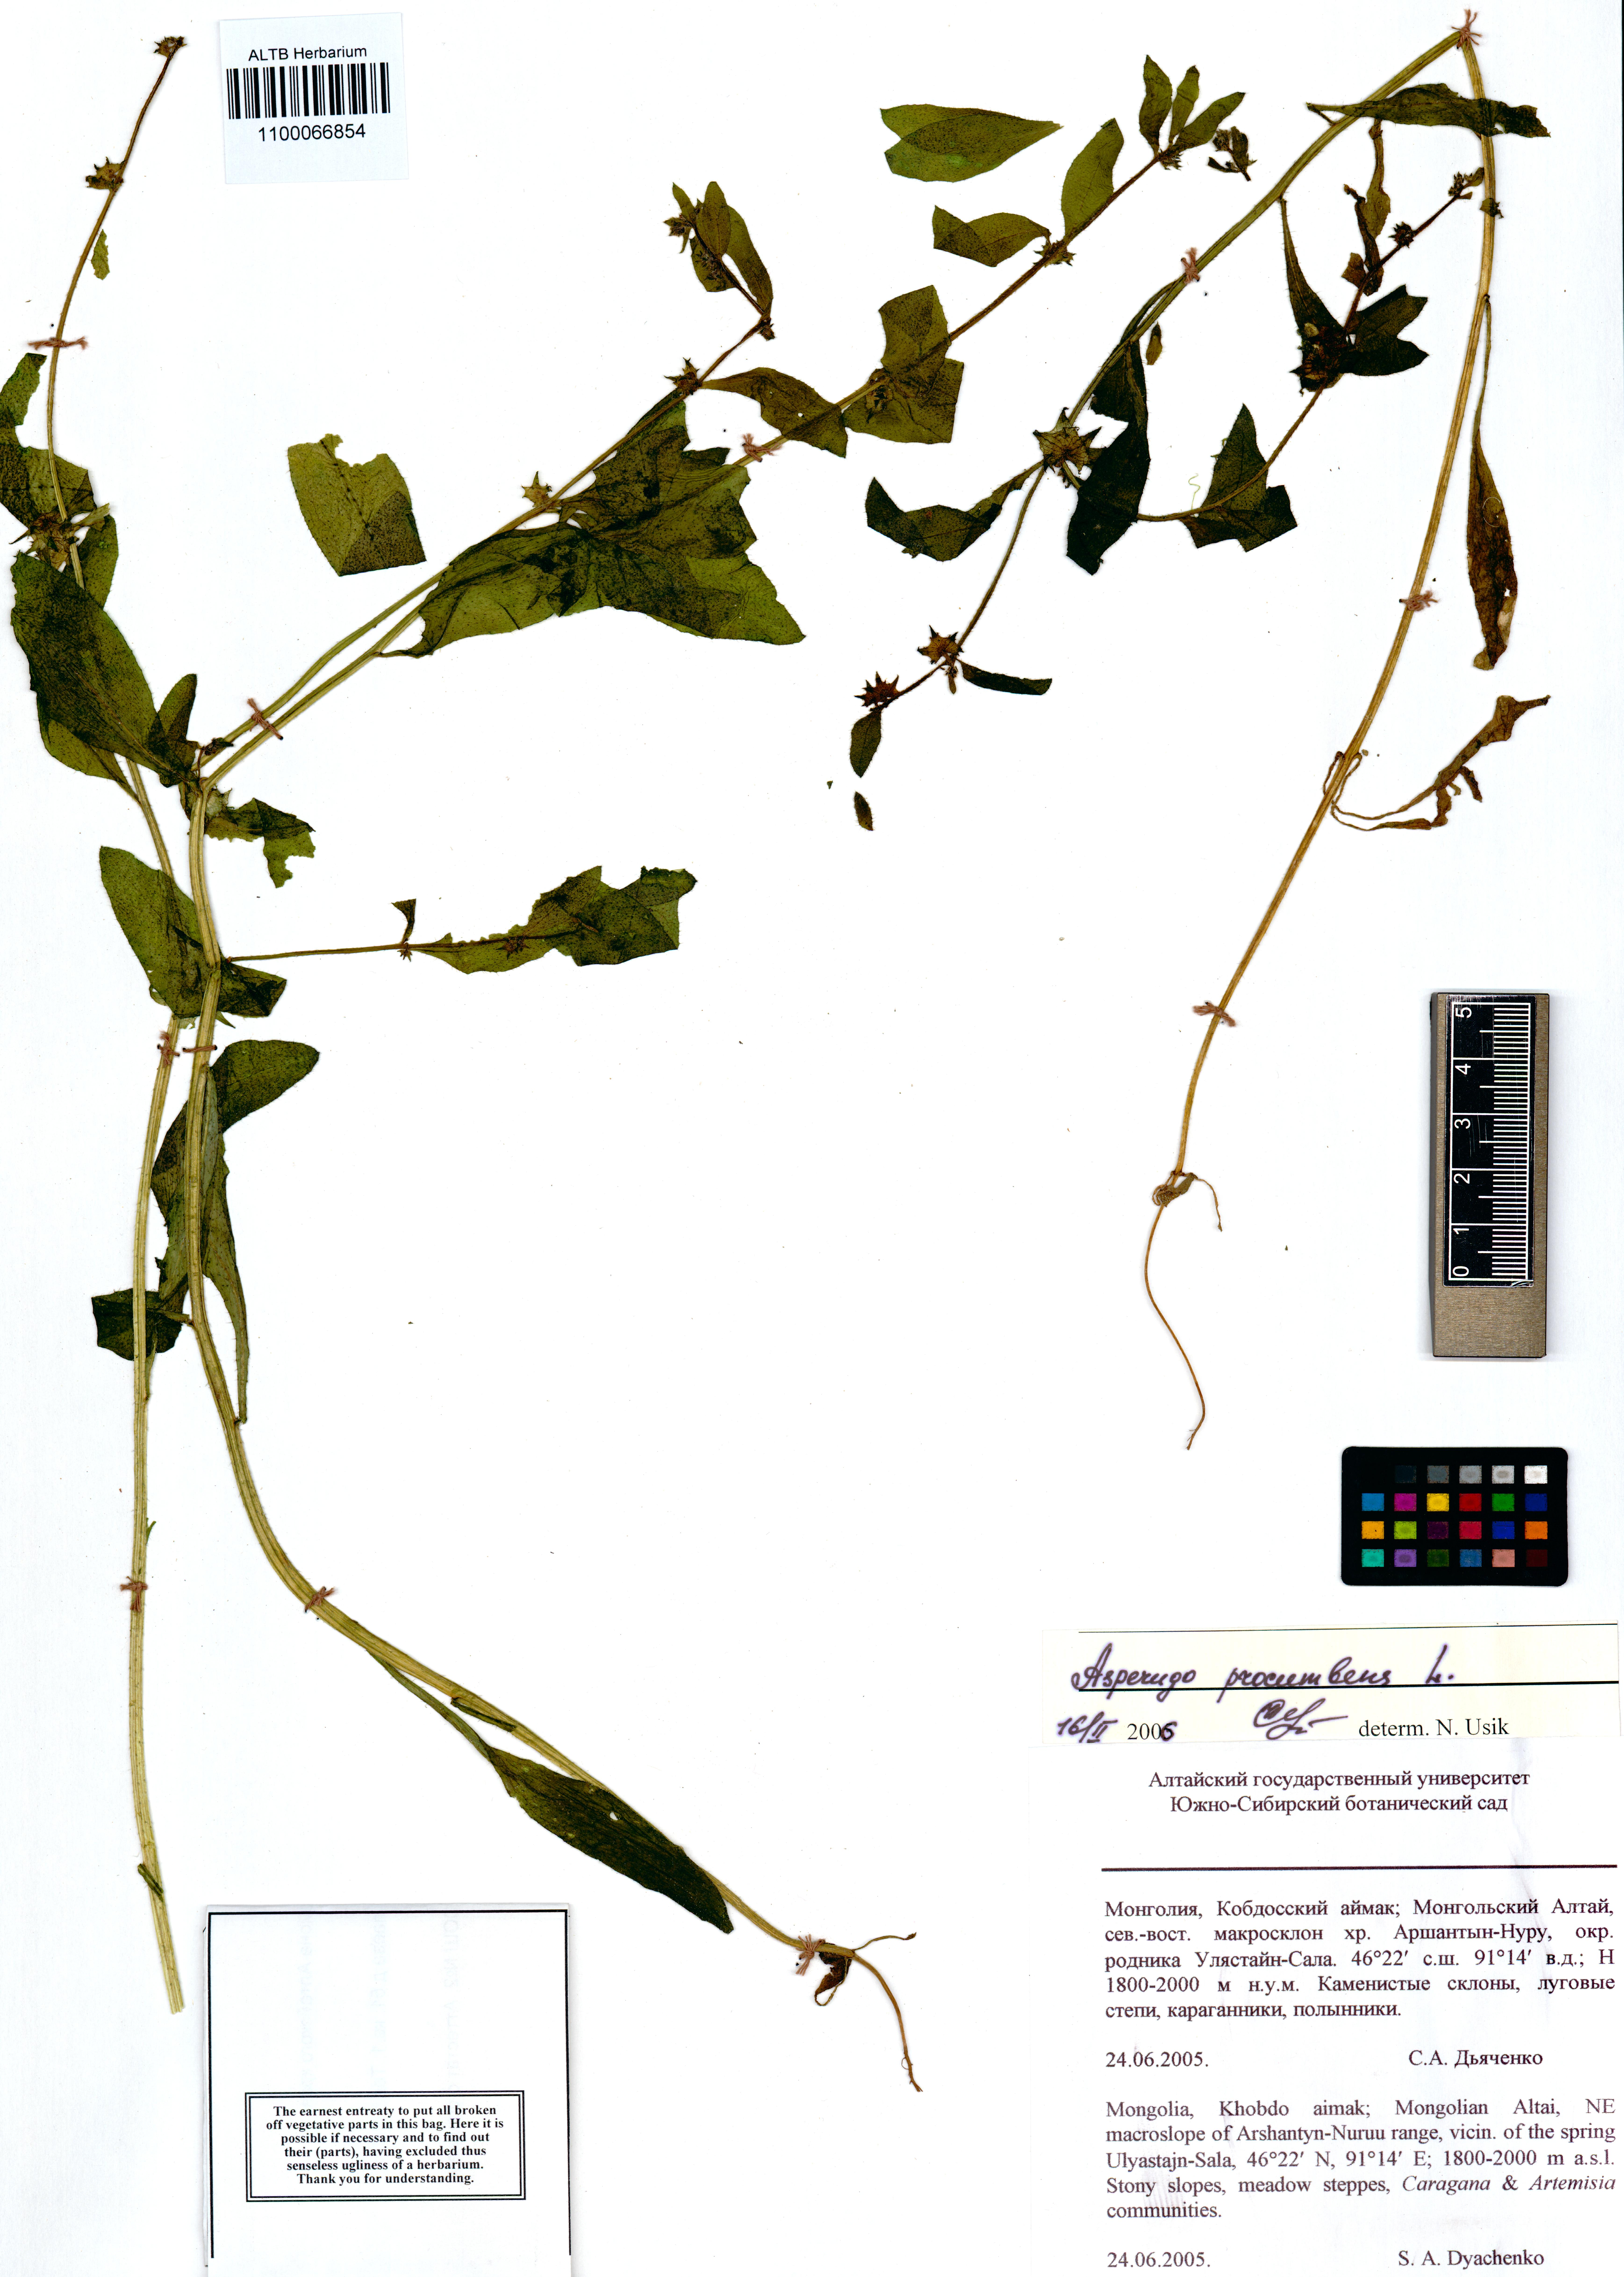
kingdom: Plantae
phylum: Tracheophyta
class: Magnoliopsida
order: Boraginales
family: Boraginaceae
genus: Asperugo
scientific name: Asperugo procumbens
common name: Madwort
